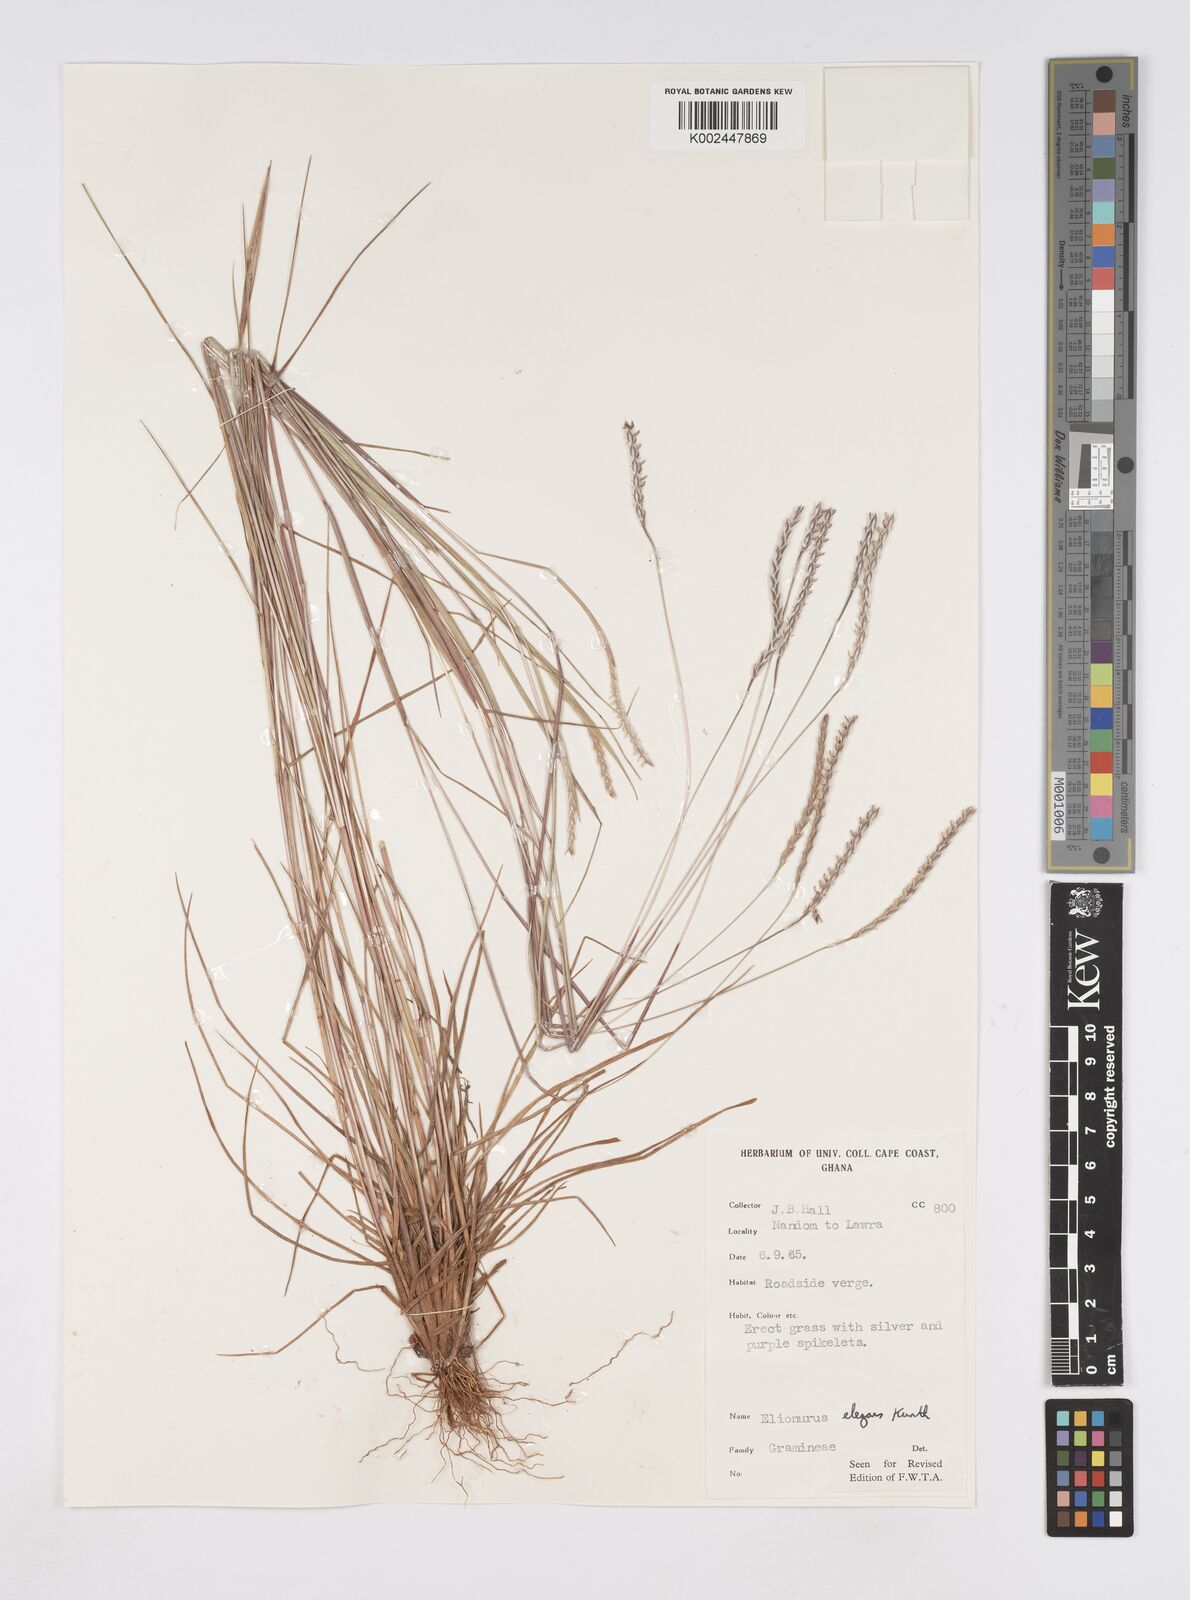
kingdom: Plantae
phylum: Tracheophyta
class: Liliopsida
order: Poales
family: Poaceae
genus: Elionurus
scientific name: Elionurus elegans
